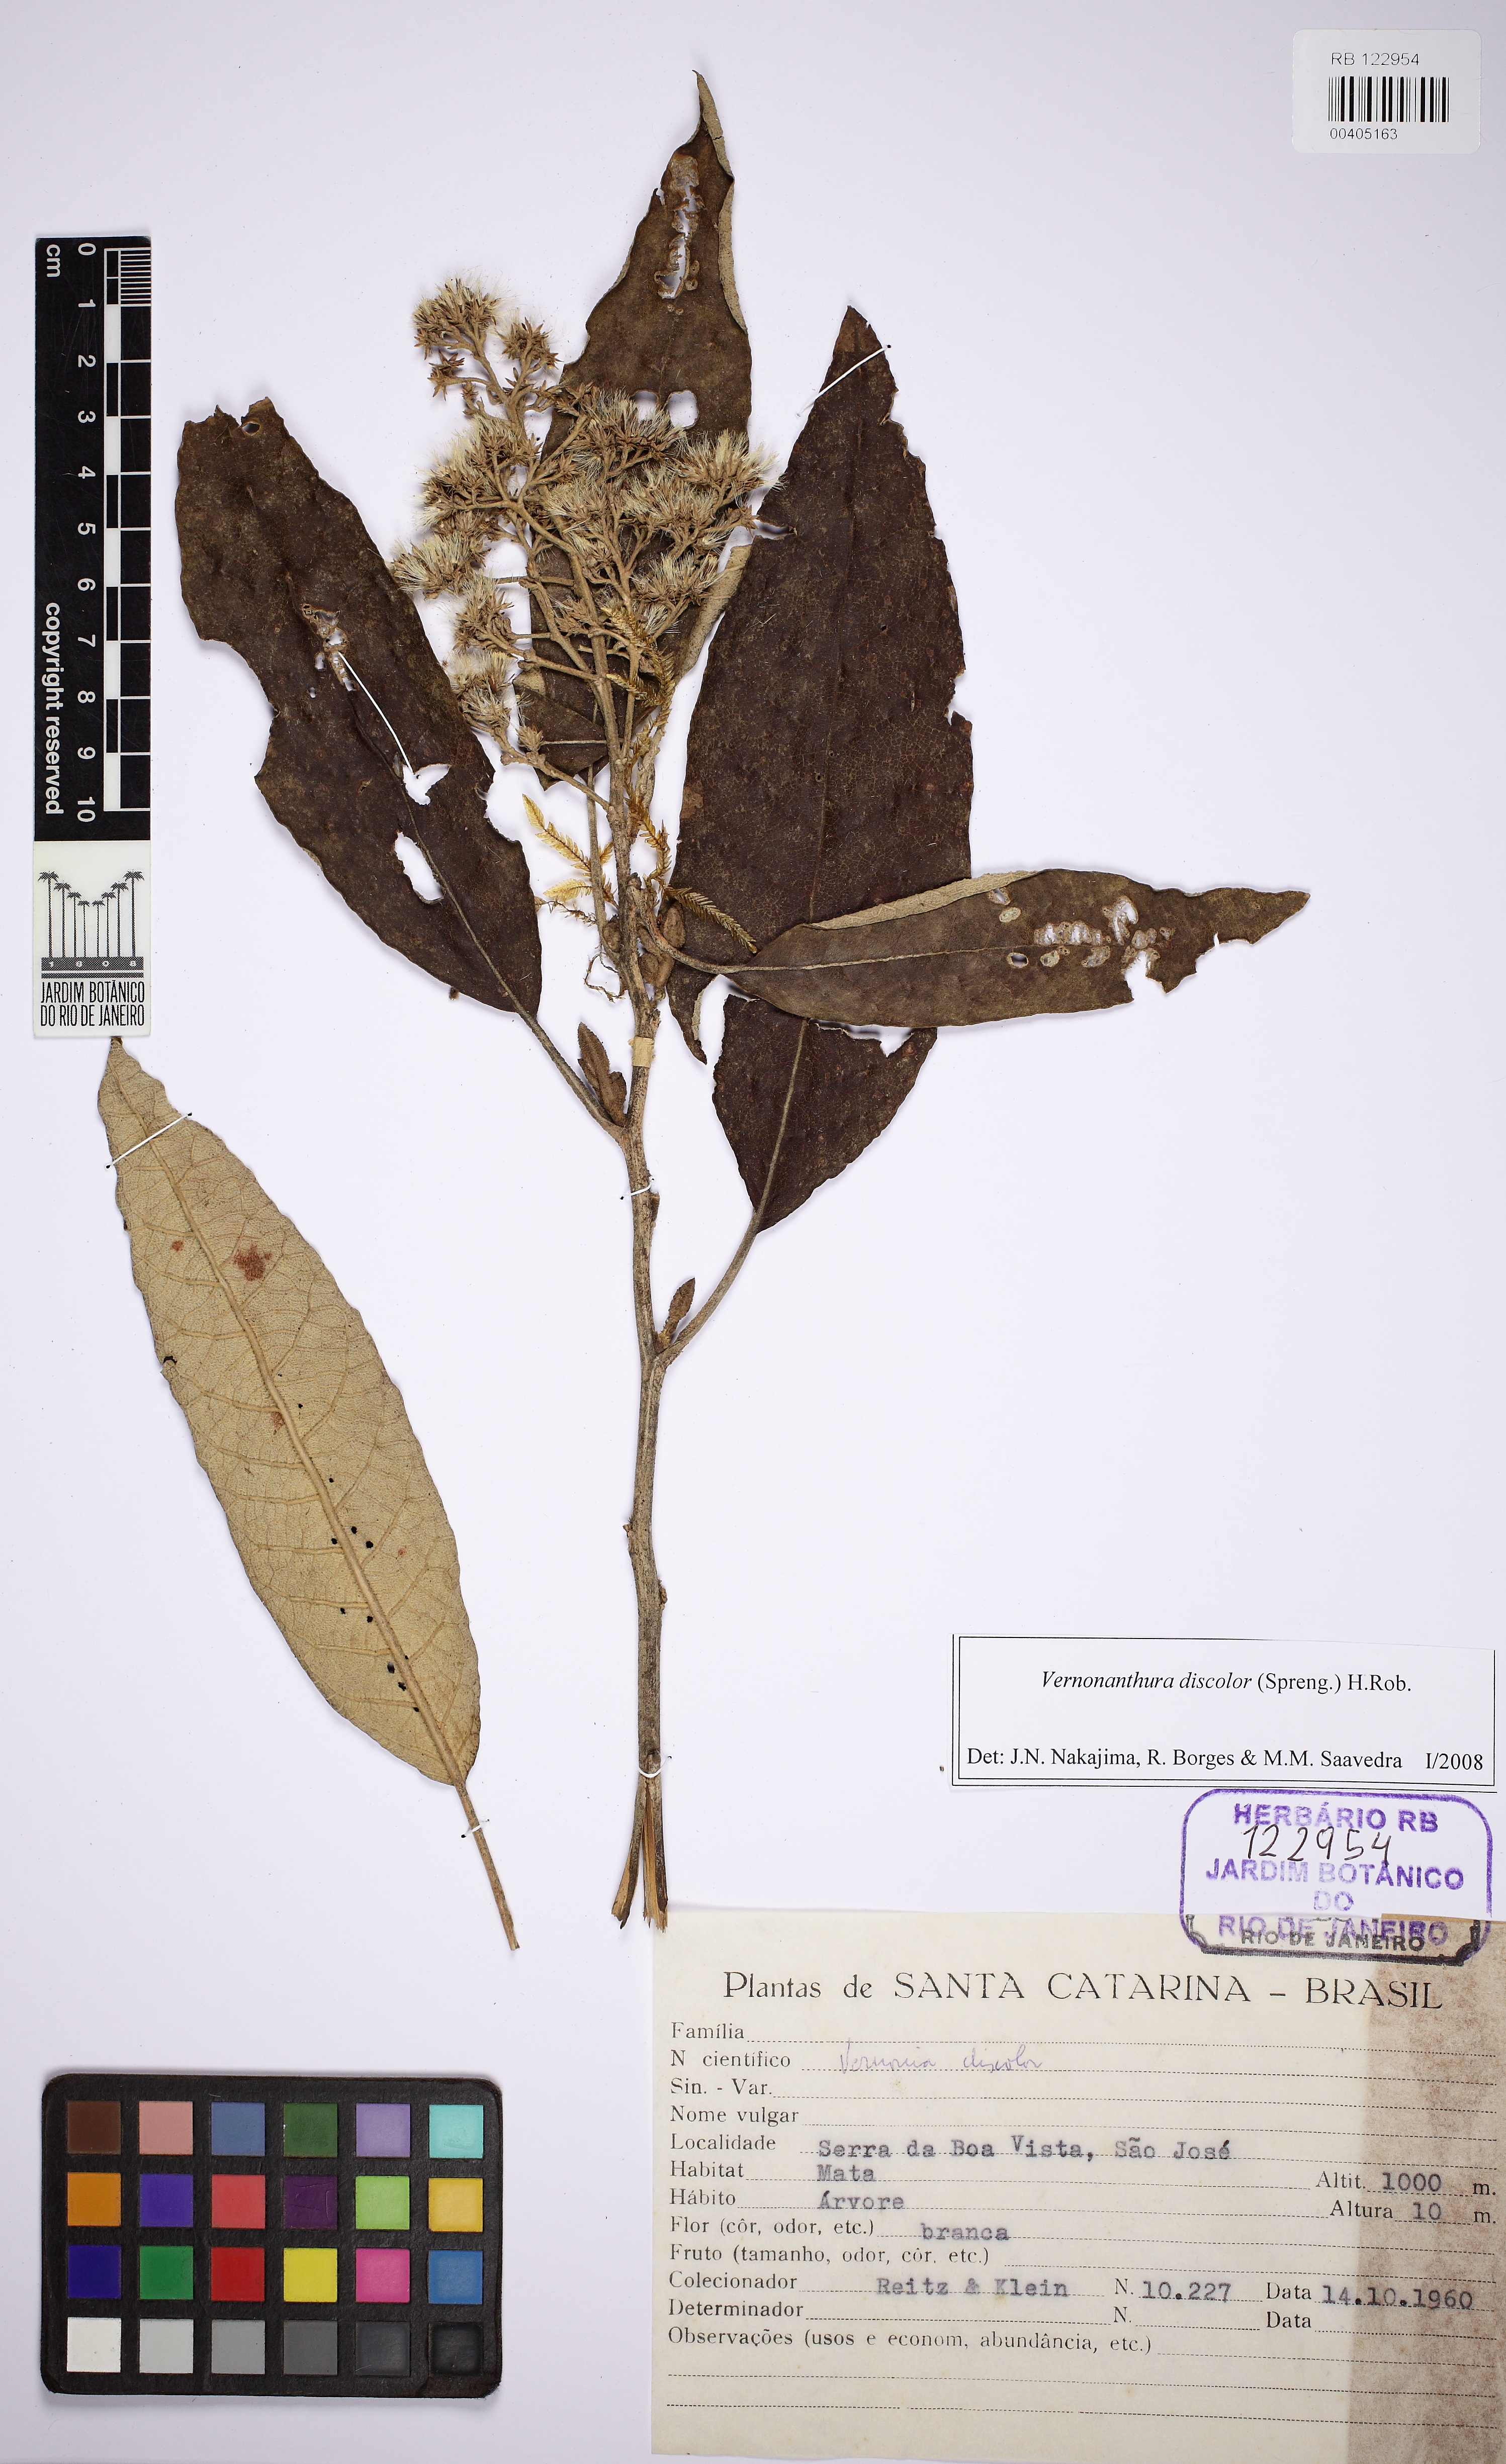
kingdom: Plantae
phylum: Tracheophyta
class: Magnoliopsida
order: Asterales
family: Asteraceae
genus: Vernonanthura
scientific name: Vernonanthura discolor
